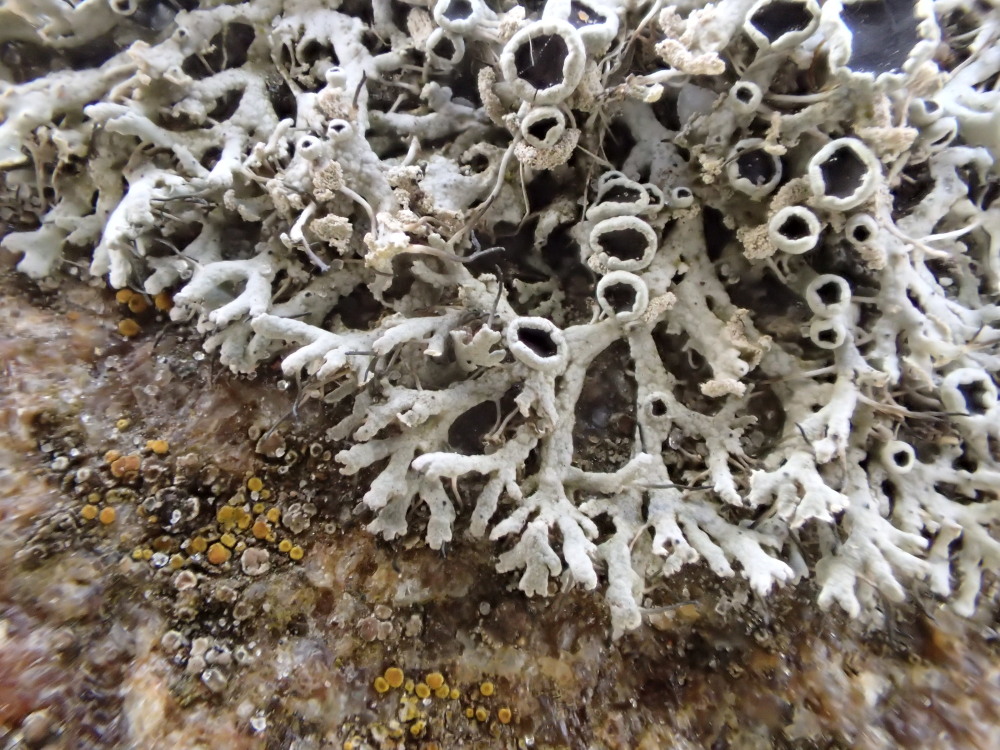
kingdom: Fungi
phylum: Ascomycota
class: Lecanoromycetes
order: Caliciales
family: Physciaceae
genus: Physcia
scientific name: Physcia tenella
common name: spæd rosetlav
